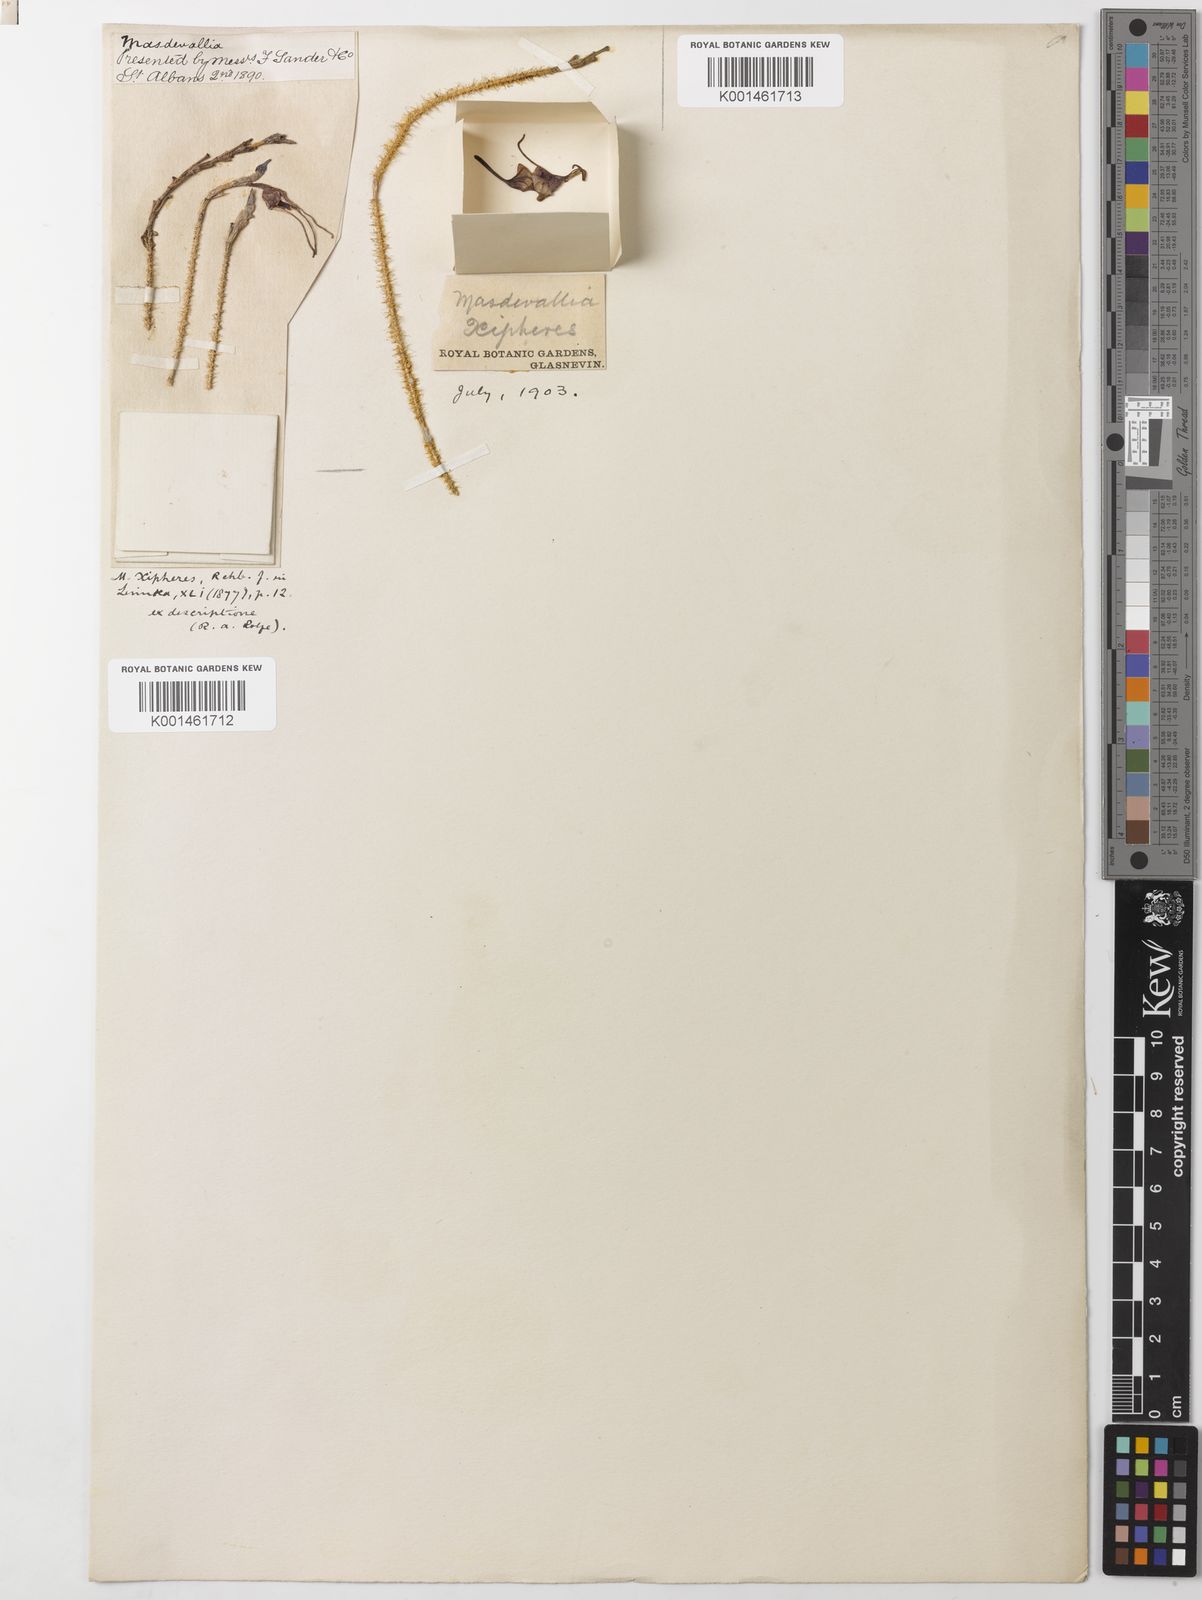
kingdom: Plantae
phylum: Tracheophyta
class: Liliopsida
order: Asparagales
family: Orchidaceae
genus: Porroglossum
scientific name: Porroglossum muscosum
